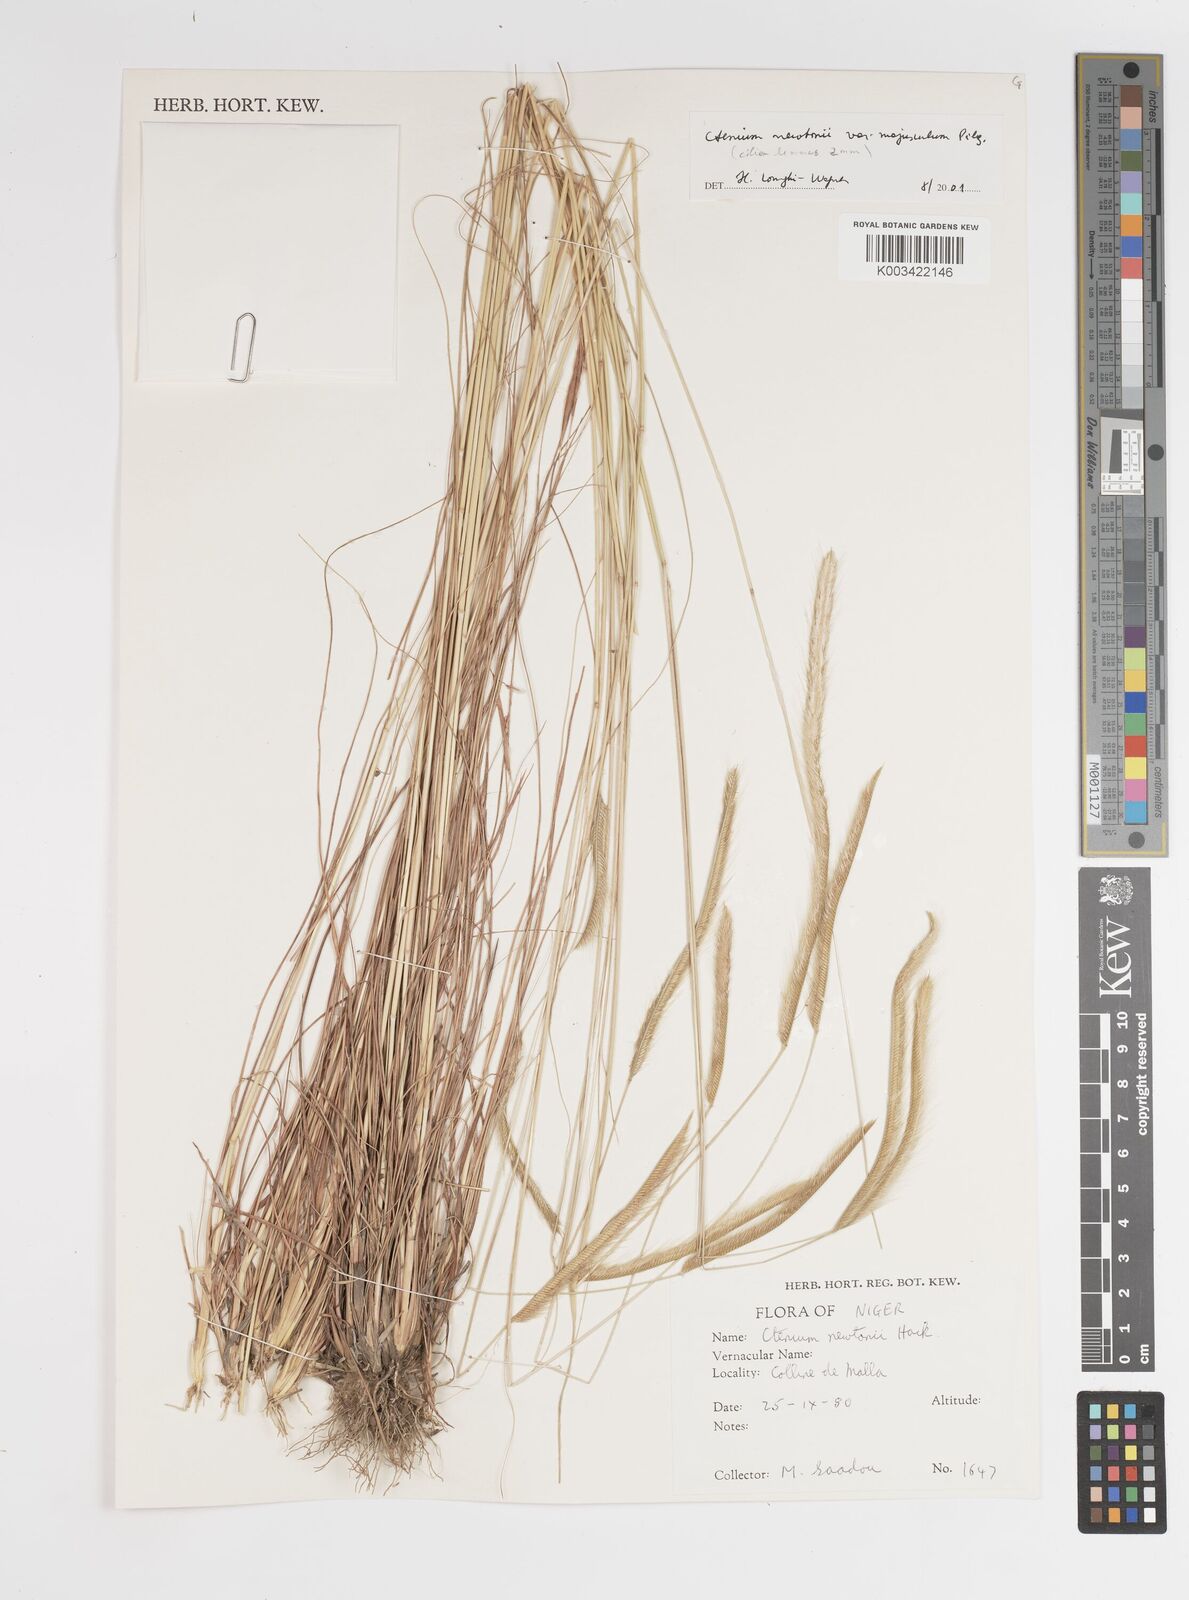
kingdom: Plantae
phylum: Tracheophyta
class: Liliopsida
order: Poales
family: Poaceae
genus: Ctenium
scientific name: Ctenium newtonii
